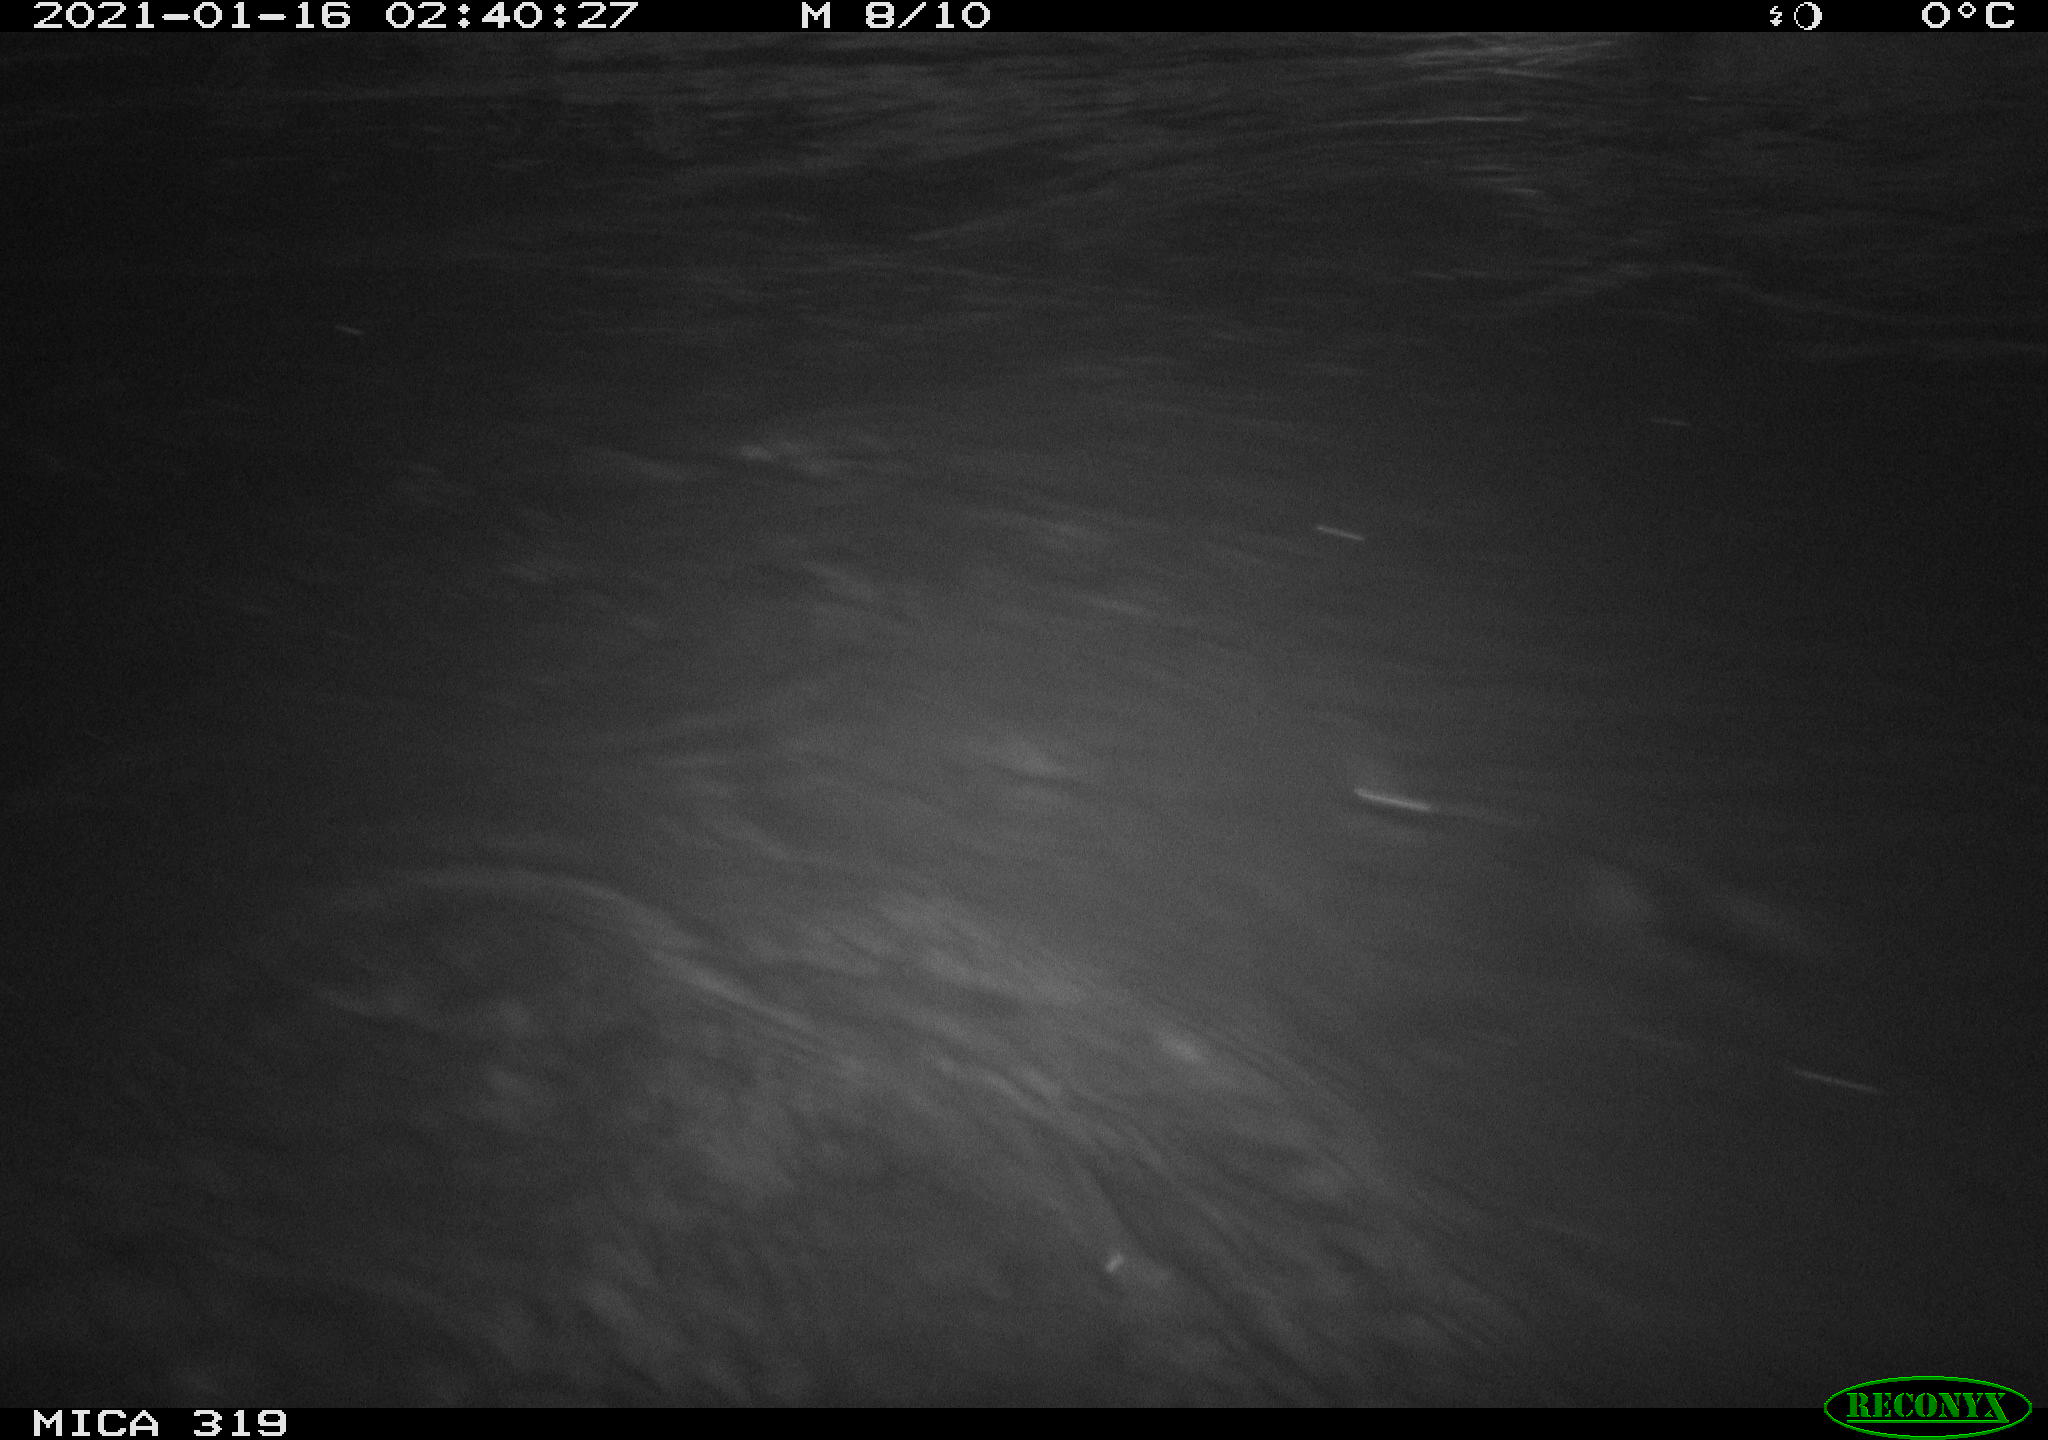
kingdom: Animalia
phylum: Chordata
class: Aves
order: Anseriformes
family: Anatidae
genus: Anas
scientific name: Anas platyrhynchos
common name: Mallard
